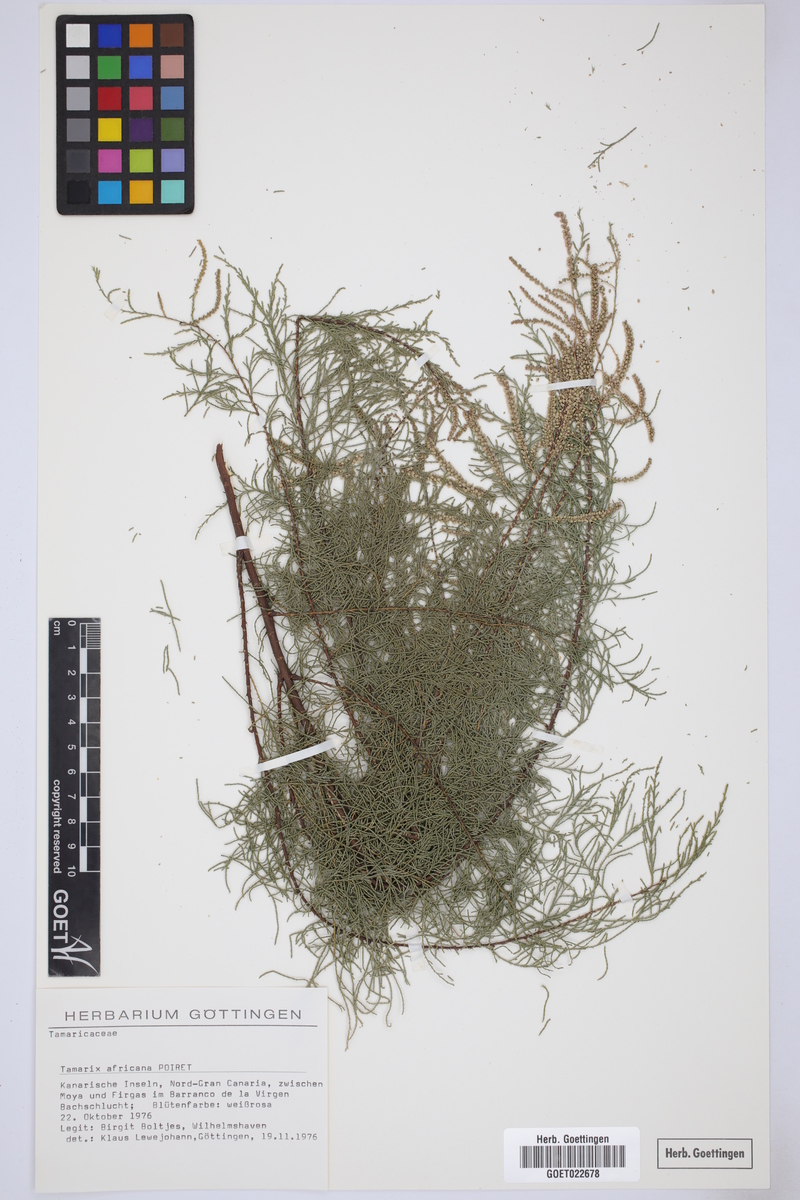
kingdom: Plantae
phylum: Tracheophyta
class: Magnoliopsida
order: Caryophyllales
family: Tamaricaceae
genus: Tamarix
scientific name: Tamarix africana
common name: African tamarisk
